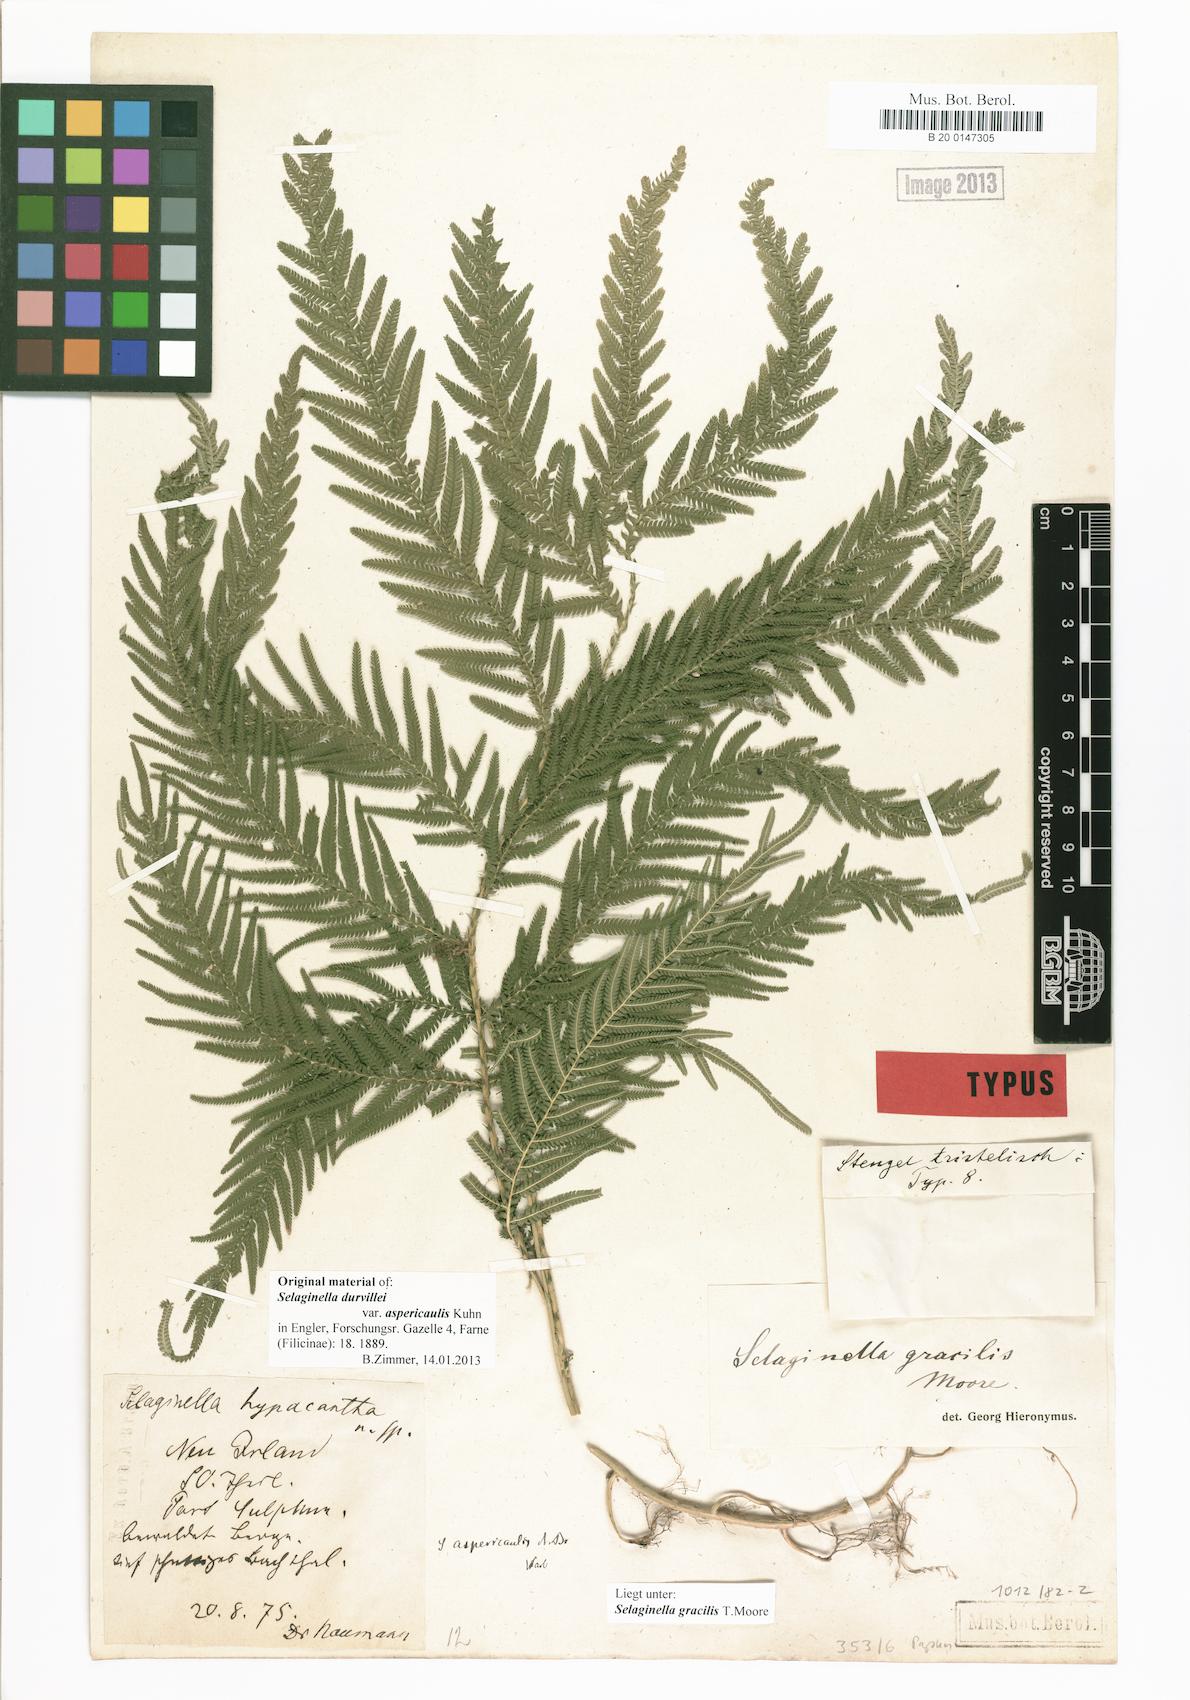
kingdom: Plantae
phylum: Tracheophyta
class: Lycopodiopsida
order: Selaginellales
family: Selaginellaceae
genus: Selaginella
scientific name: Selaginella gracilis
